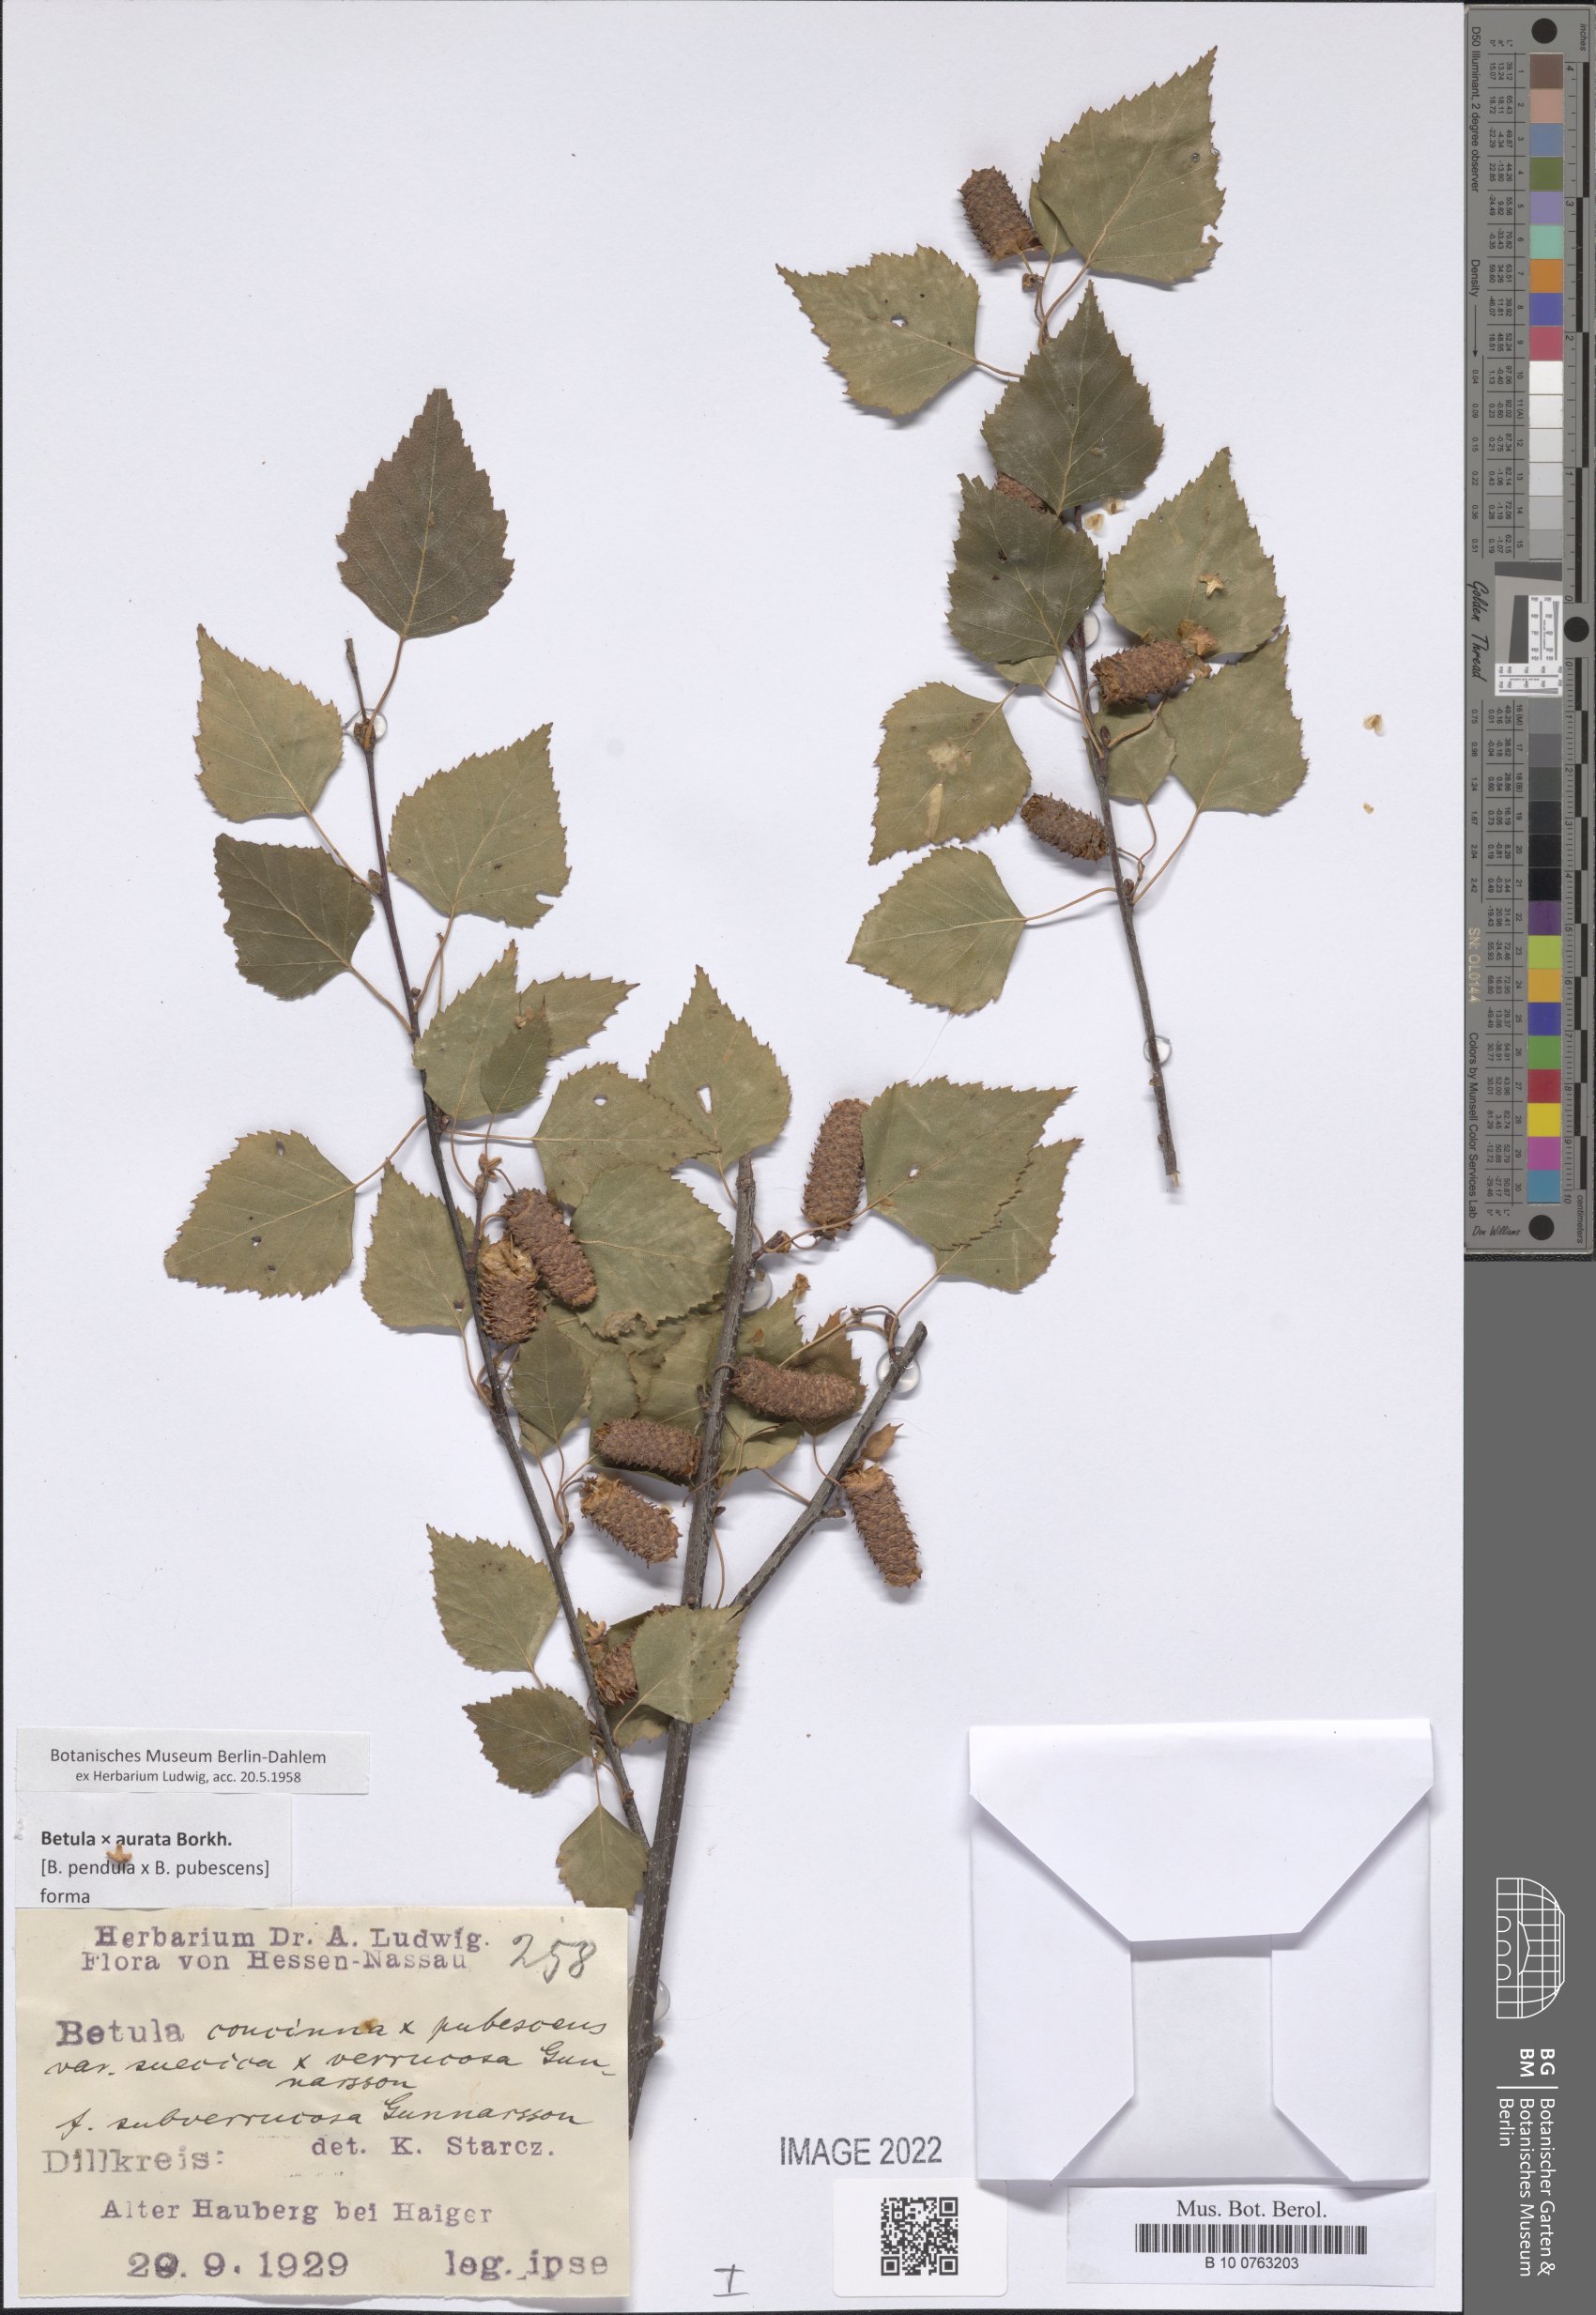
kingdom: Plantae
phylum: Tracheophyta
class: Polypodiopsida
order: Polypodiales
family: Dryopteridaceae
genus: Elaphoglossum
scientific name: Elaphoglossum
